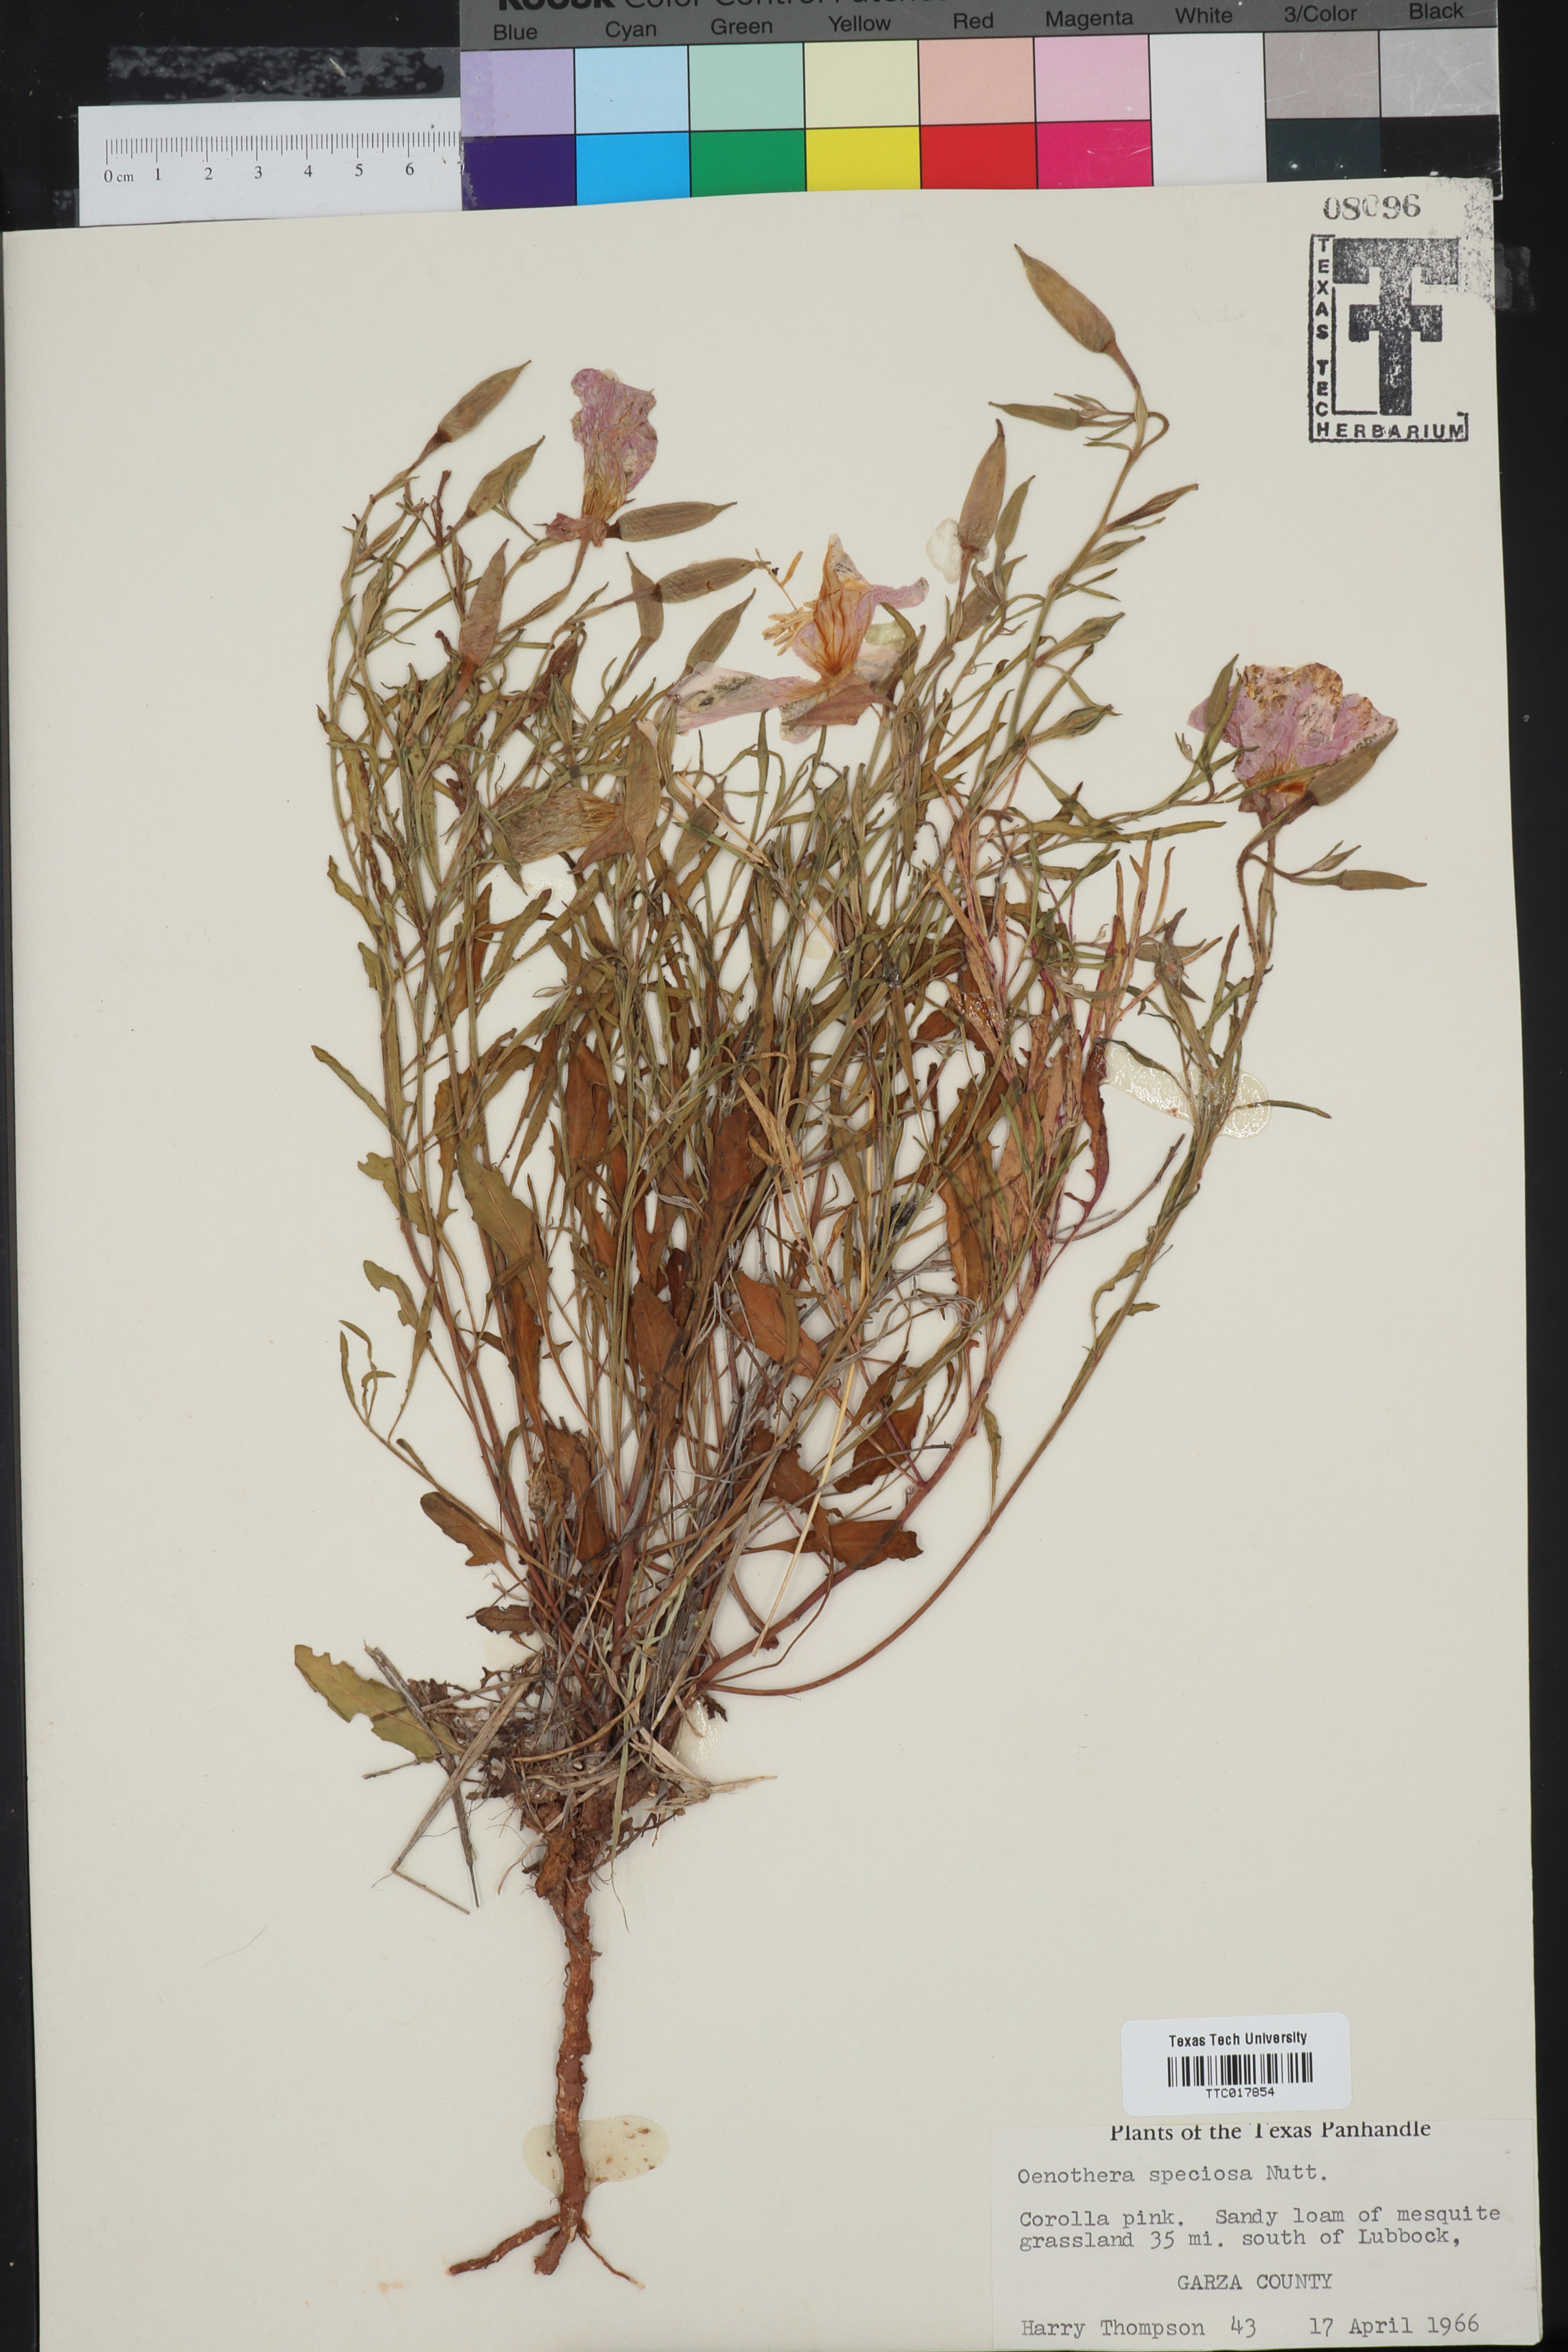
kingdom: Plantae
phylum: Tracheophyta
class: Magnoliopsida
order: Myrtales
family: Onagraceae
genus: Oenothera
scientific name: Oenothera speciosa
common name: White evening-primrose
